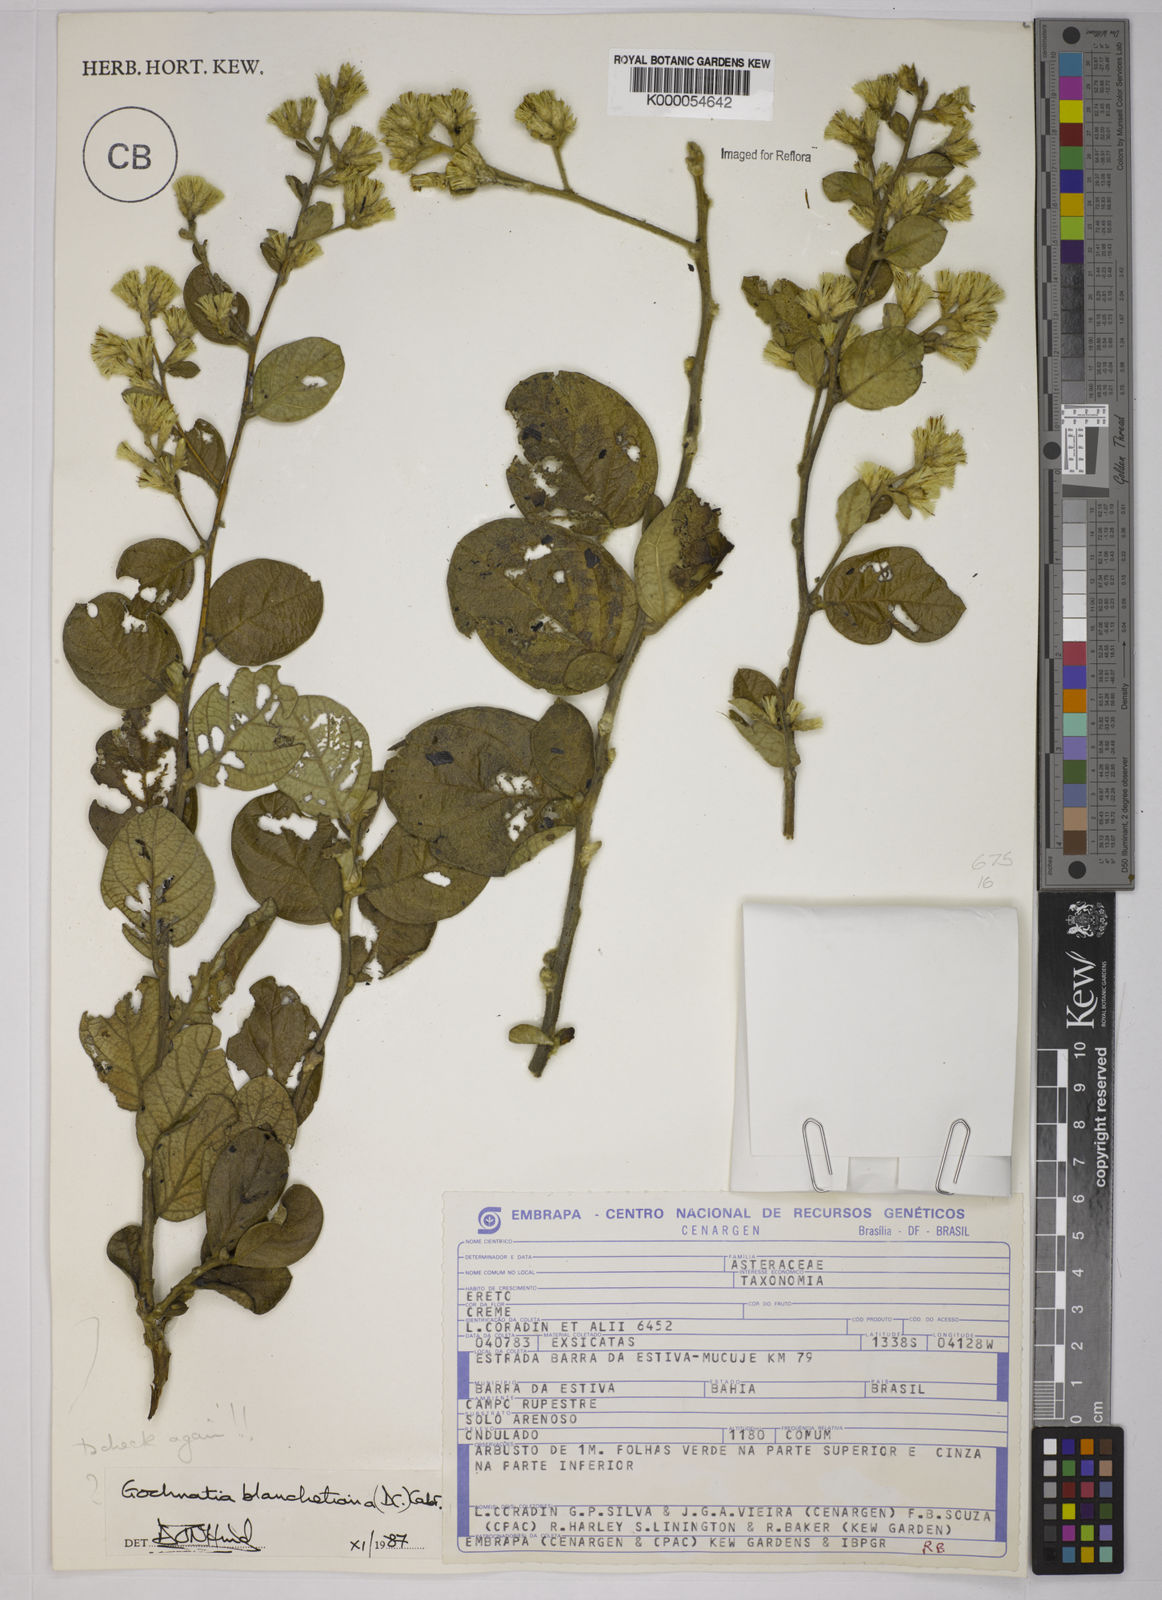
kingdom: Plantae
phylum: Tracheophyta
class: Magnoliopsida
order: Asterales
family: Asteraceae
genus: Moquiniastrum
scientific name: Moquiniastrum blanchetianum
